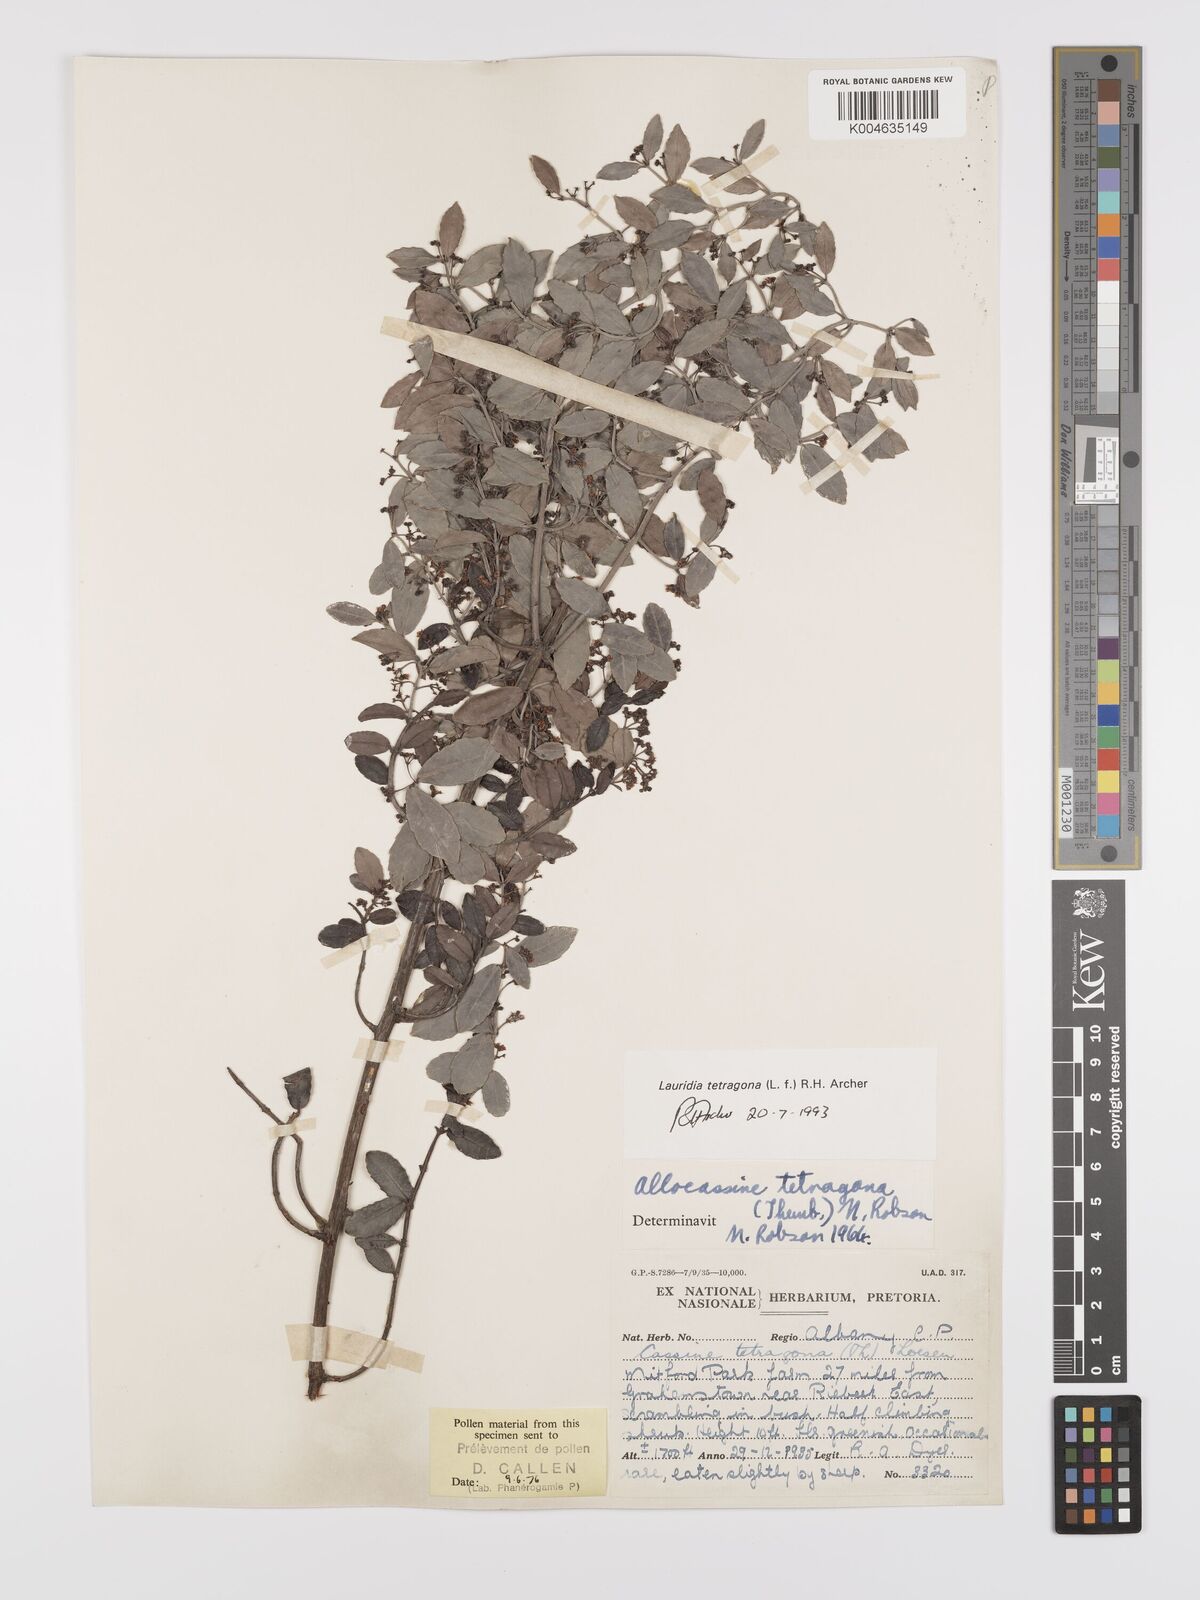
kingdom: Plantae
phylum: Tracheophyta
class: Magnoliopsida
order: Celastrales
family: Celastraceae
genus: Lauridia
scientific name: Lauridia tetragona
